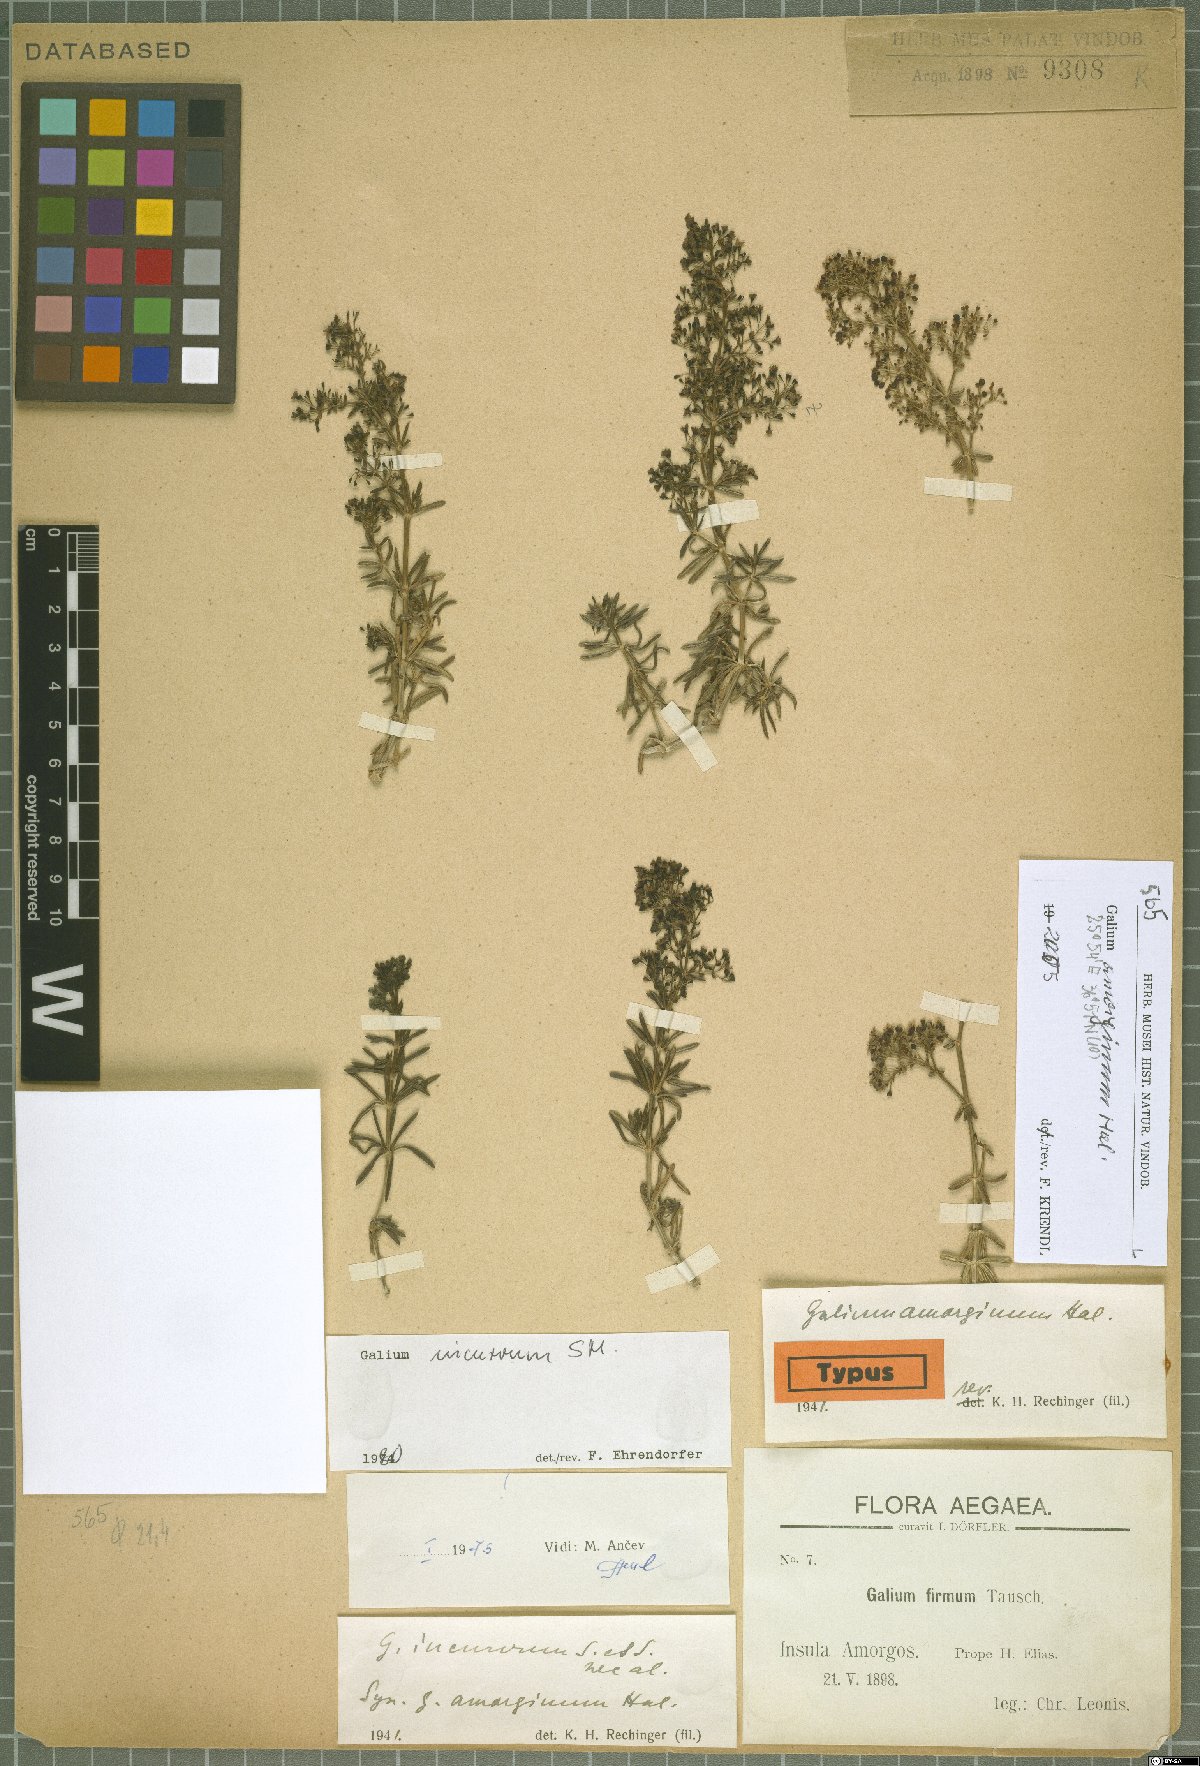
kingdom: Plantae
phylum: Tracheophyta
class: Magnoliopsida
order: Gentianales
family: Rubiaceae
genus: Galium
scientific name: Galium amorginum
